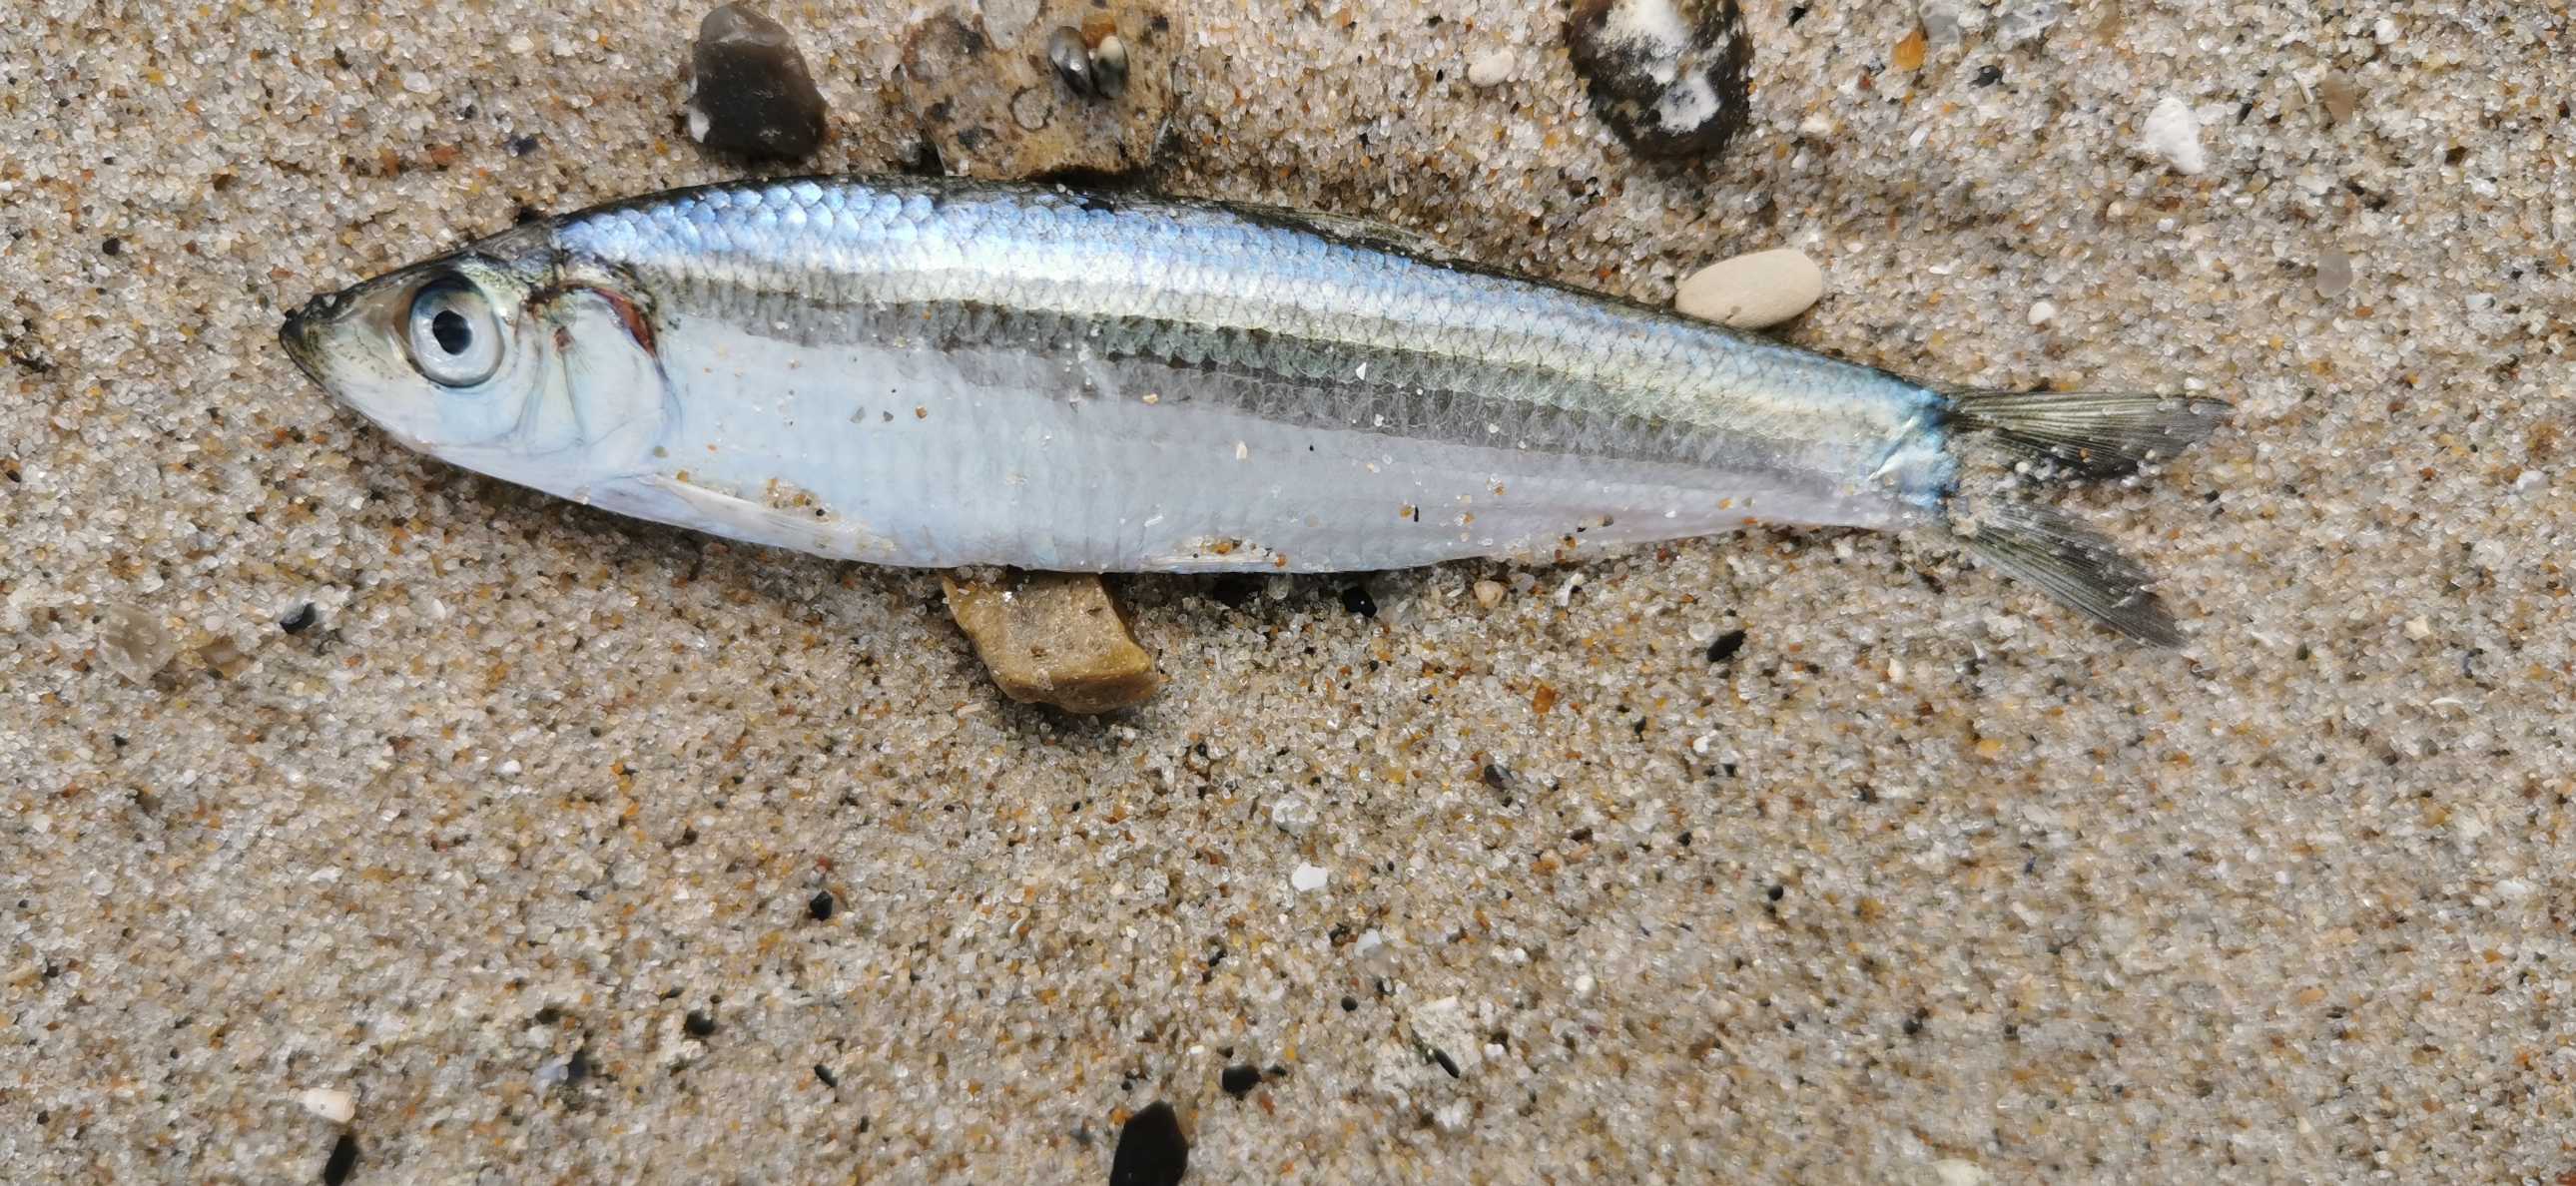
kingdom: Animalia
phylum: Chordata
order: Clupeiformes
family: Clupeidae
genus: Sprattus
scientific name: Sprattus sprattus
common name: Brisling
